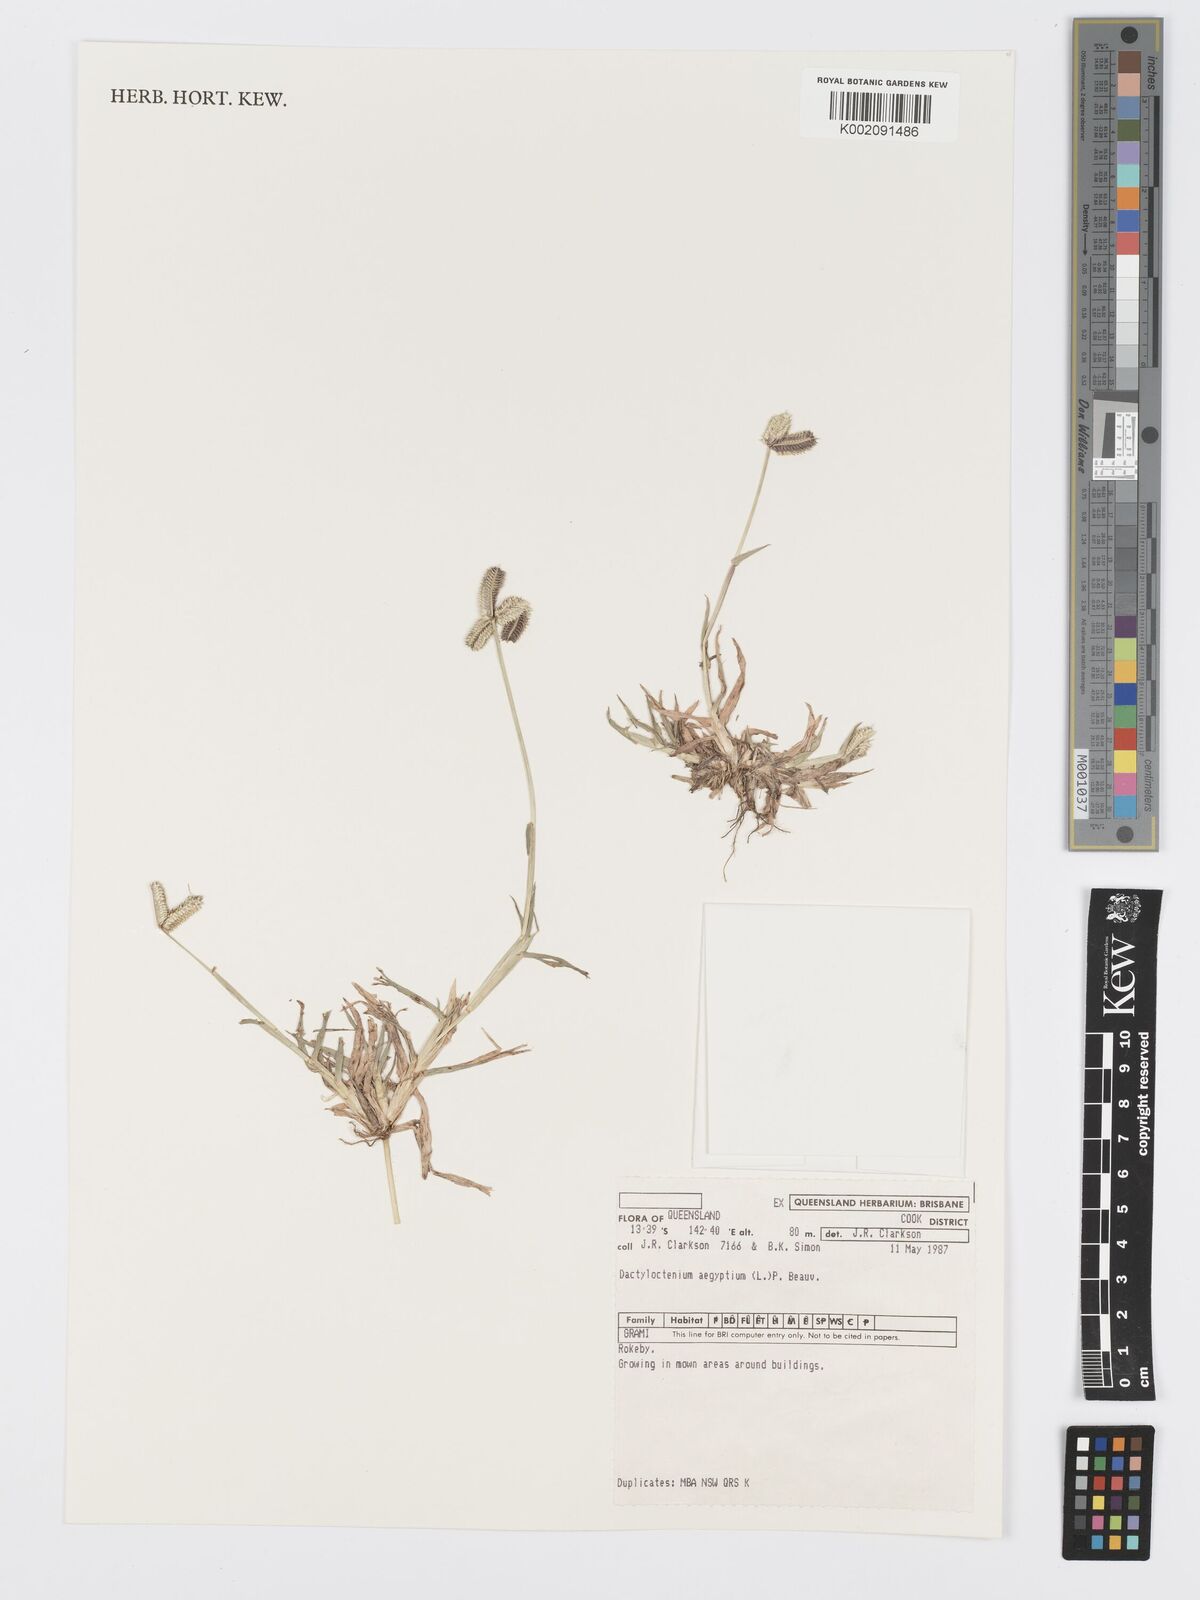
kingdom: Plantae
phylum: Tracheophyta
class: Liliopsida
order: Poales
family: Poaceae
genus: Dactyloctenium
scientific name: Dactyloctenium aegyptium
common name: Egyptian grass
